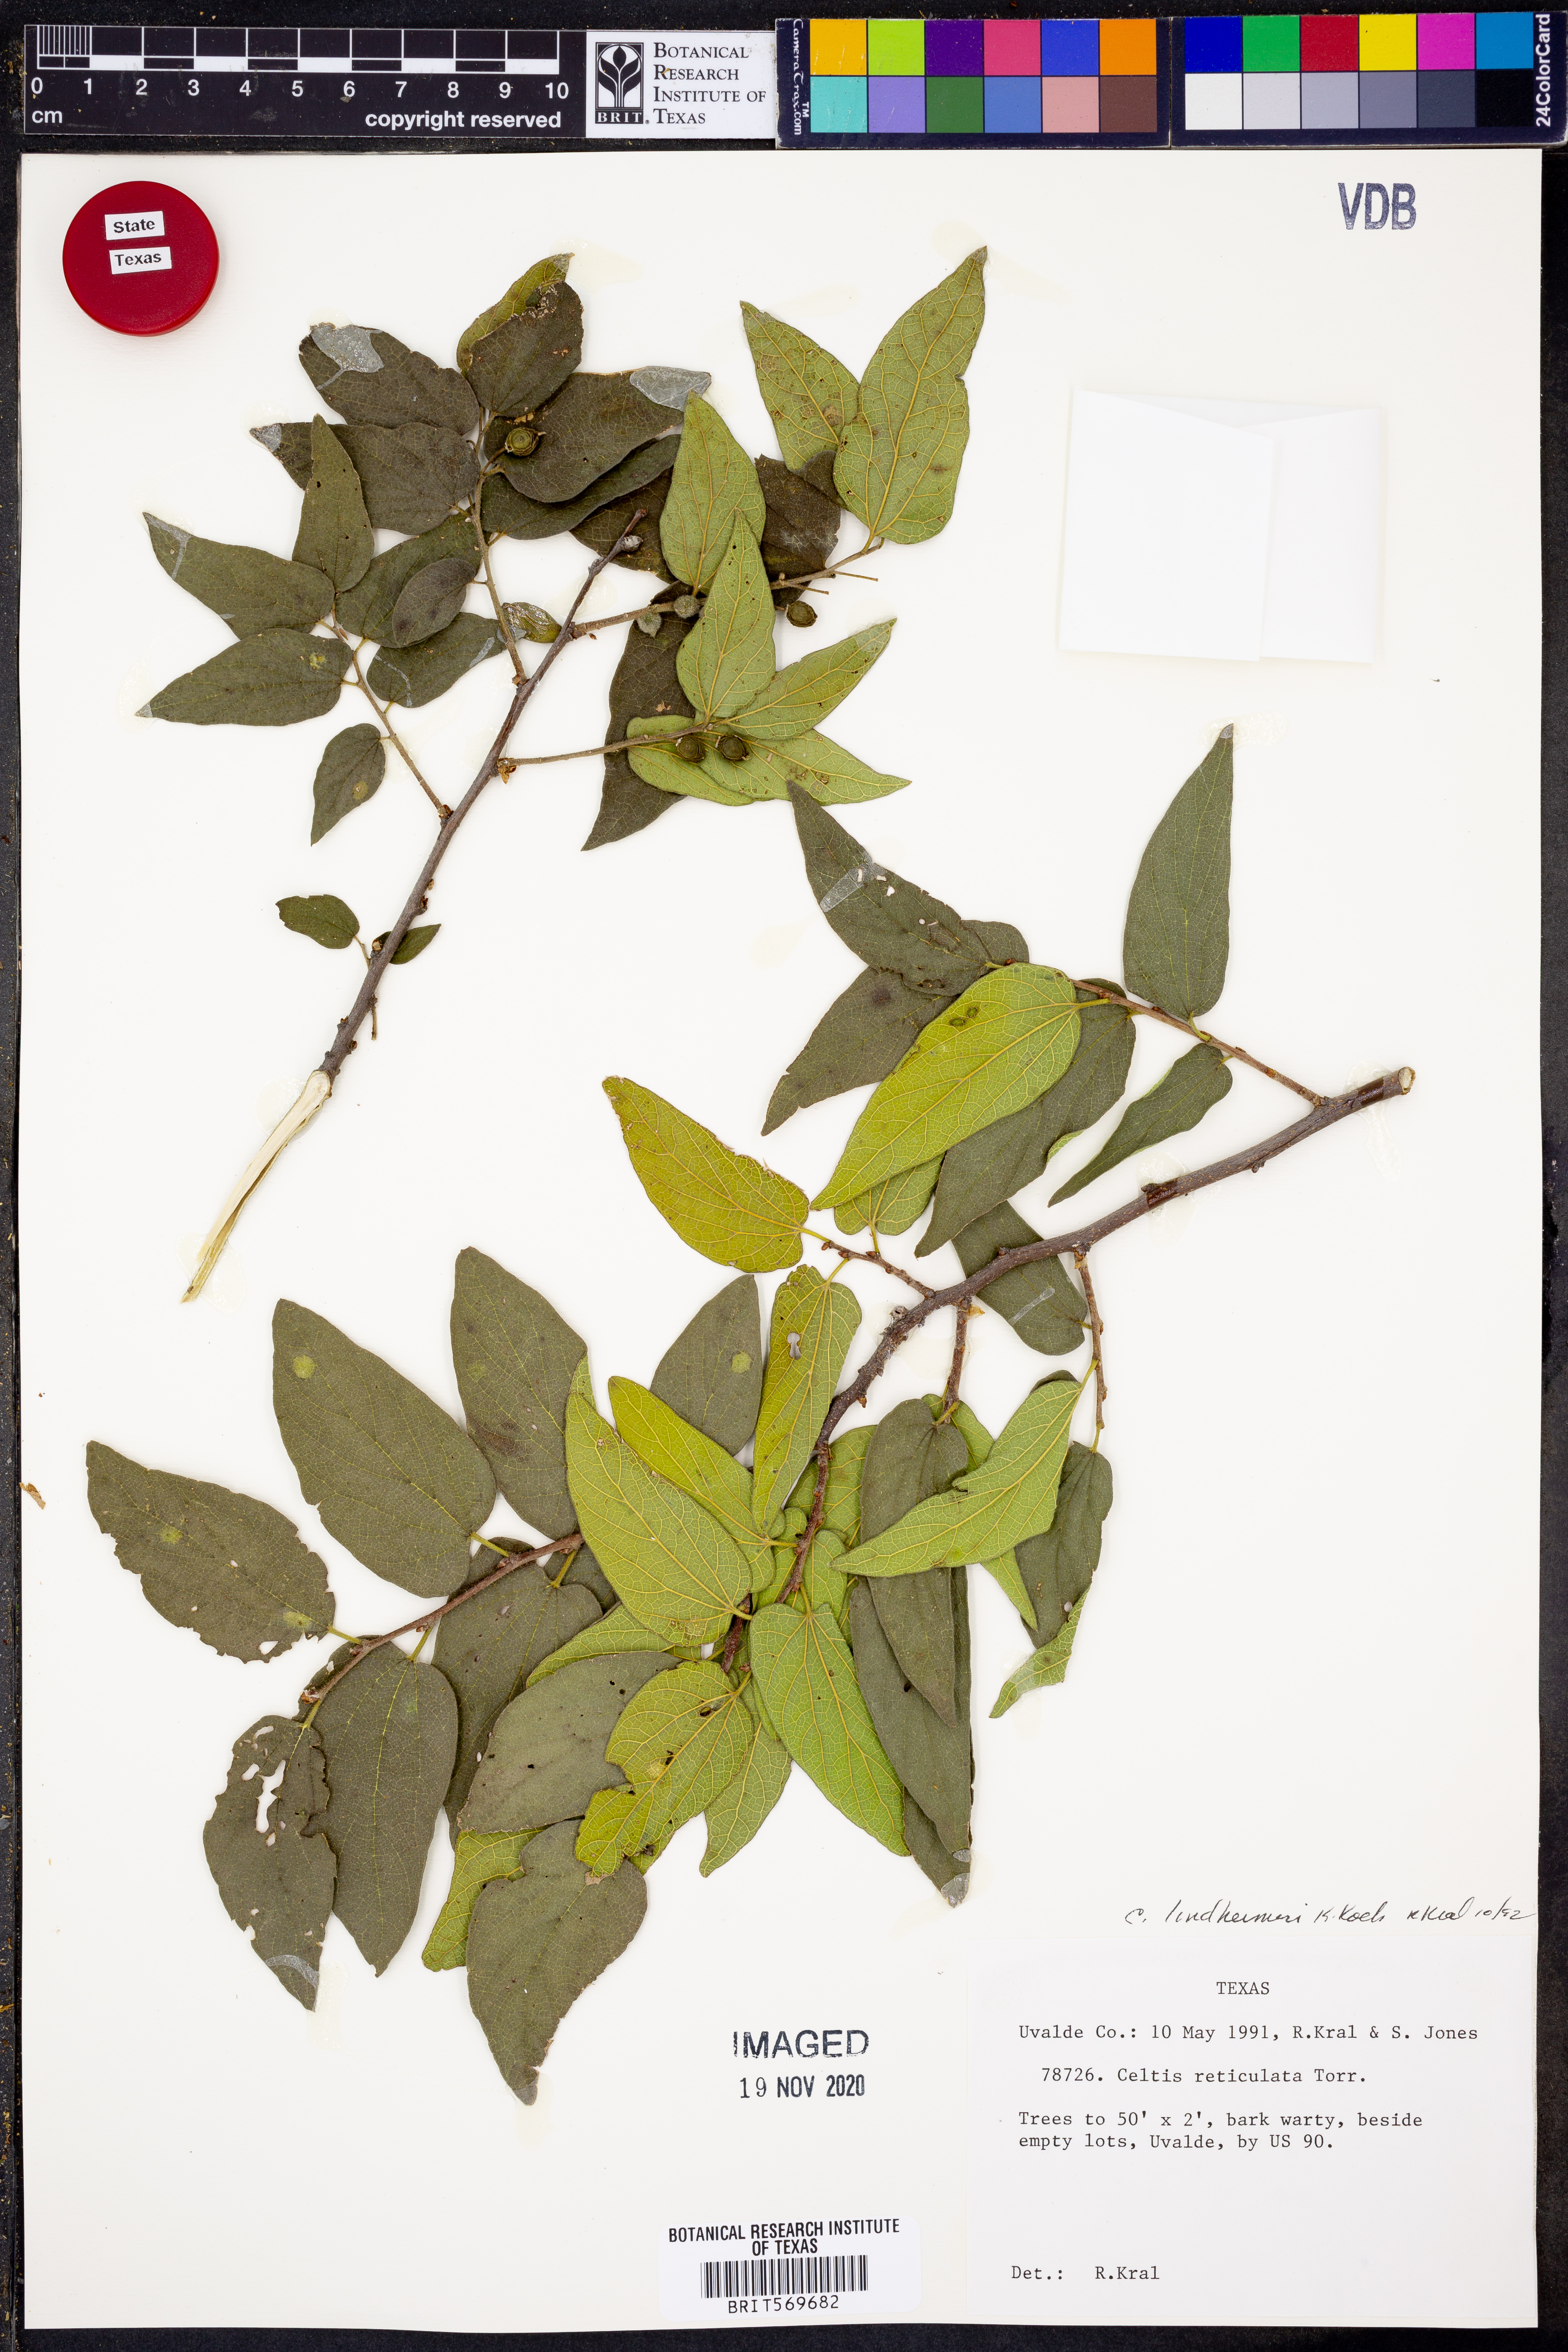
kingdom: Plantae
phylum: Tracheophyta
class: Magnoliopsida
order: Rosales
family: Cannabaceae
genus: Celtis
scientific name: Celtis lindheimeri
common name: Lindheimer hackberry
